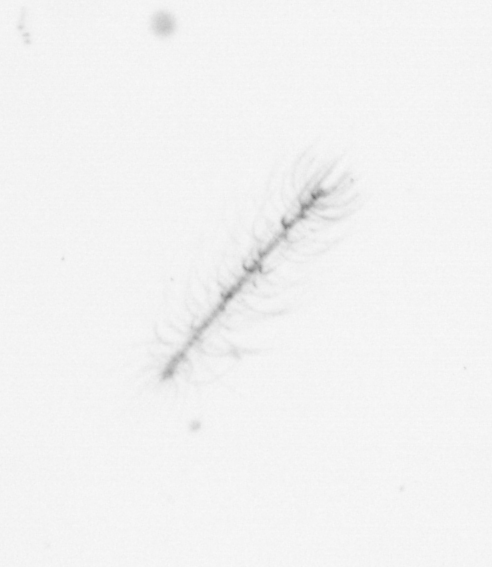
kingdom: Chromista
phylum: Ochrophyta
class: Bacillariophyceae
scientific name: Bacillariophyceae
